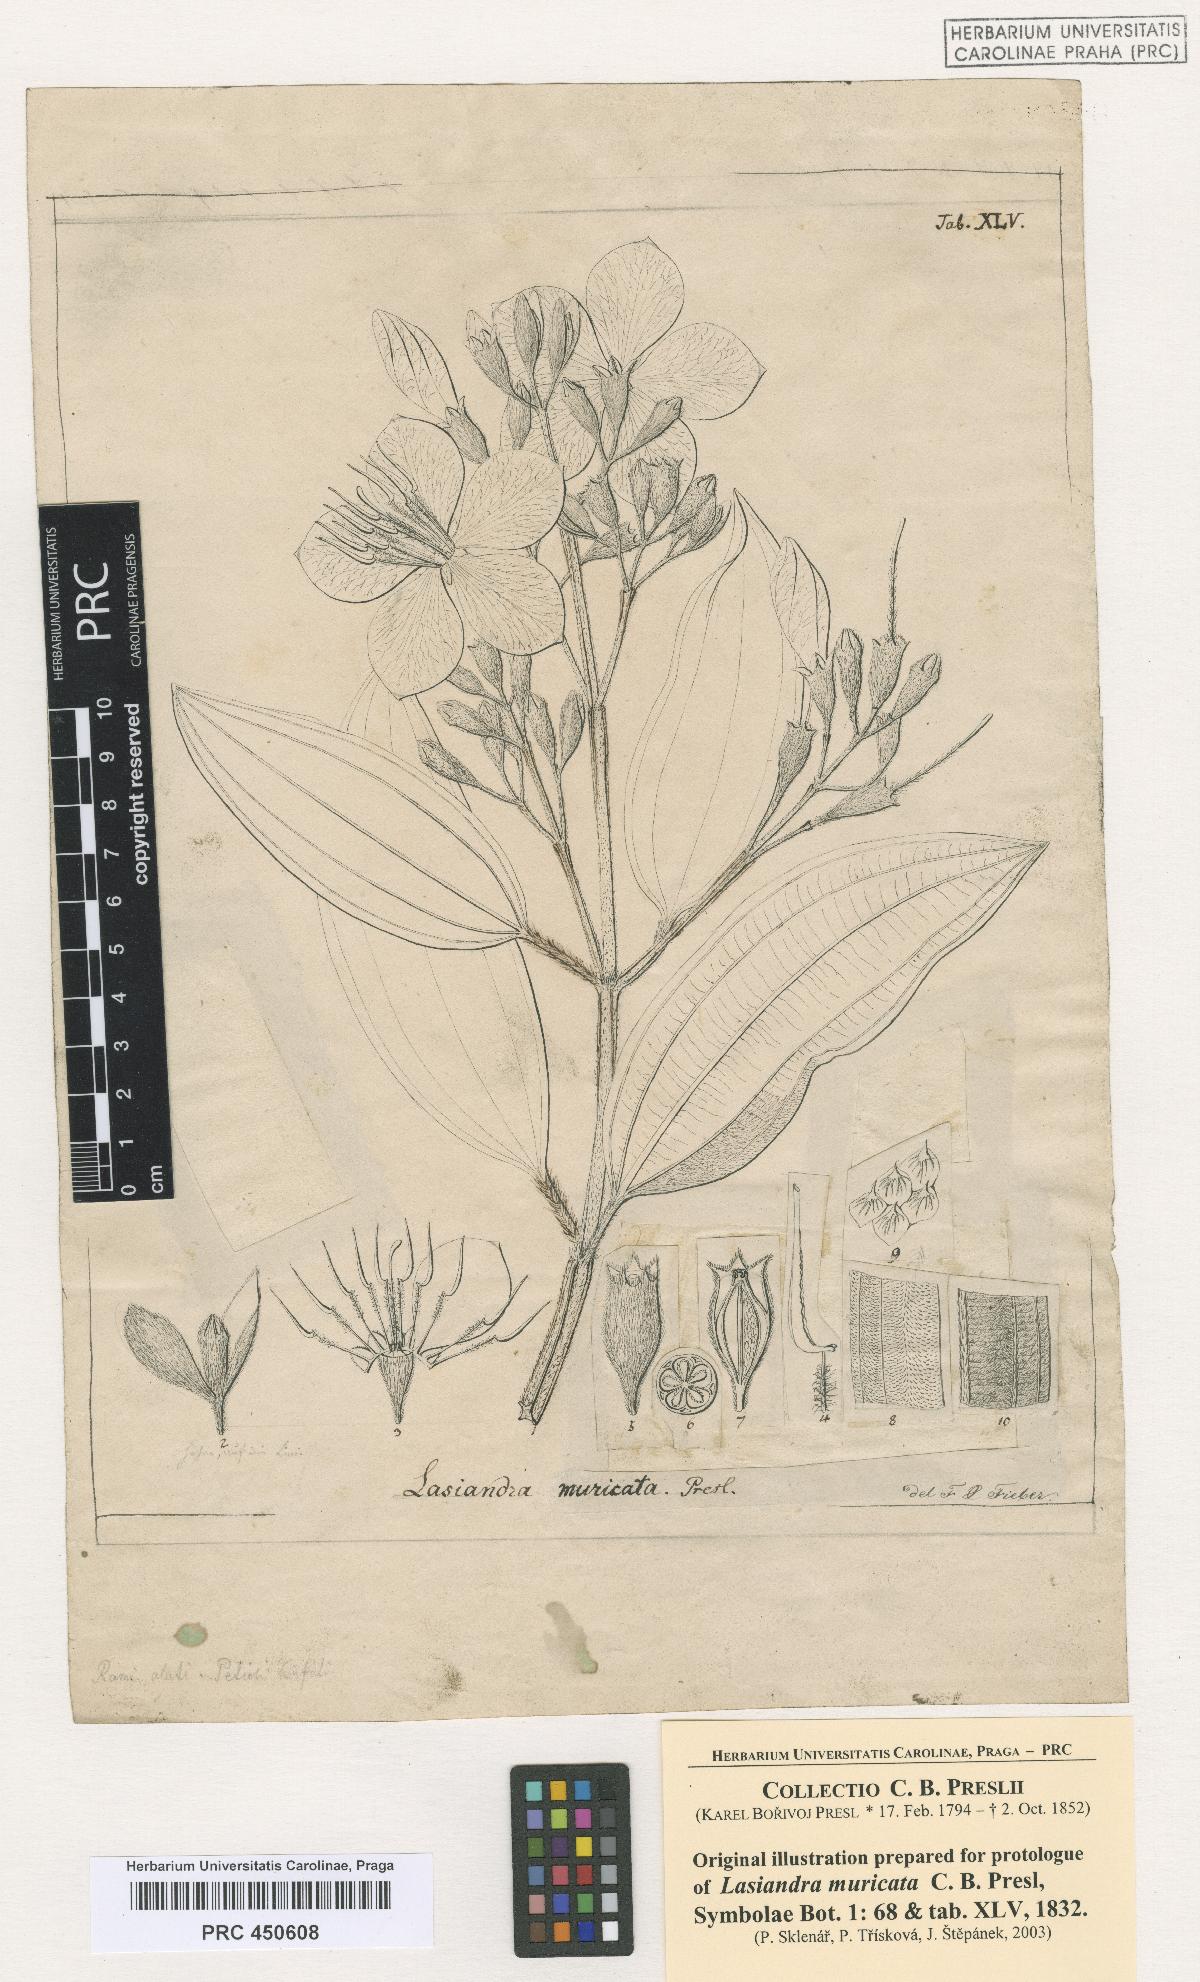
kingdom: Plantae
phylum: Tracheophyta
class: Magnoliopsida
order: Myrtales
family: Melastomataceae
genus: Pleroma
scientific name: Pleroma estrellense
